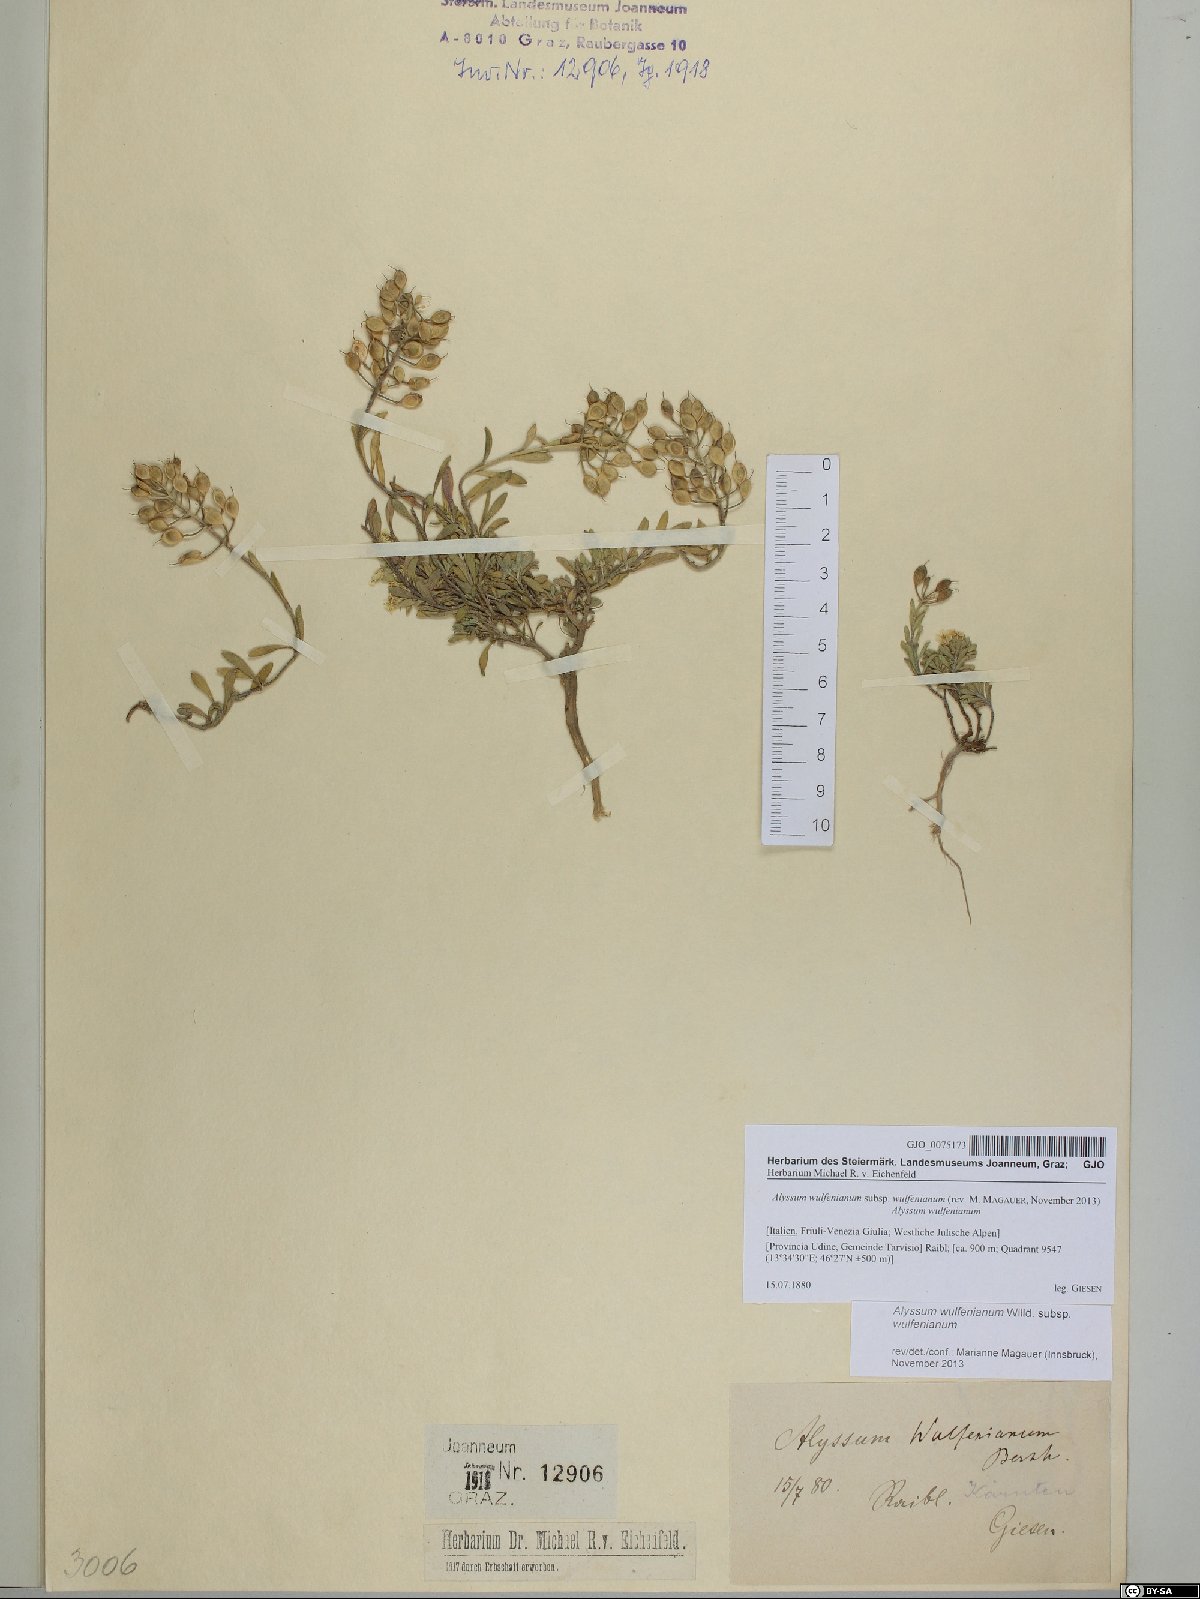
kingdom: Plantae
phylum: Tracheophyta
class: Magnoliopsida
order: Brassicales
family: Brassicaceae
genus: Alyssum
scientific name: Alyssum wulfenianum
